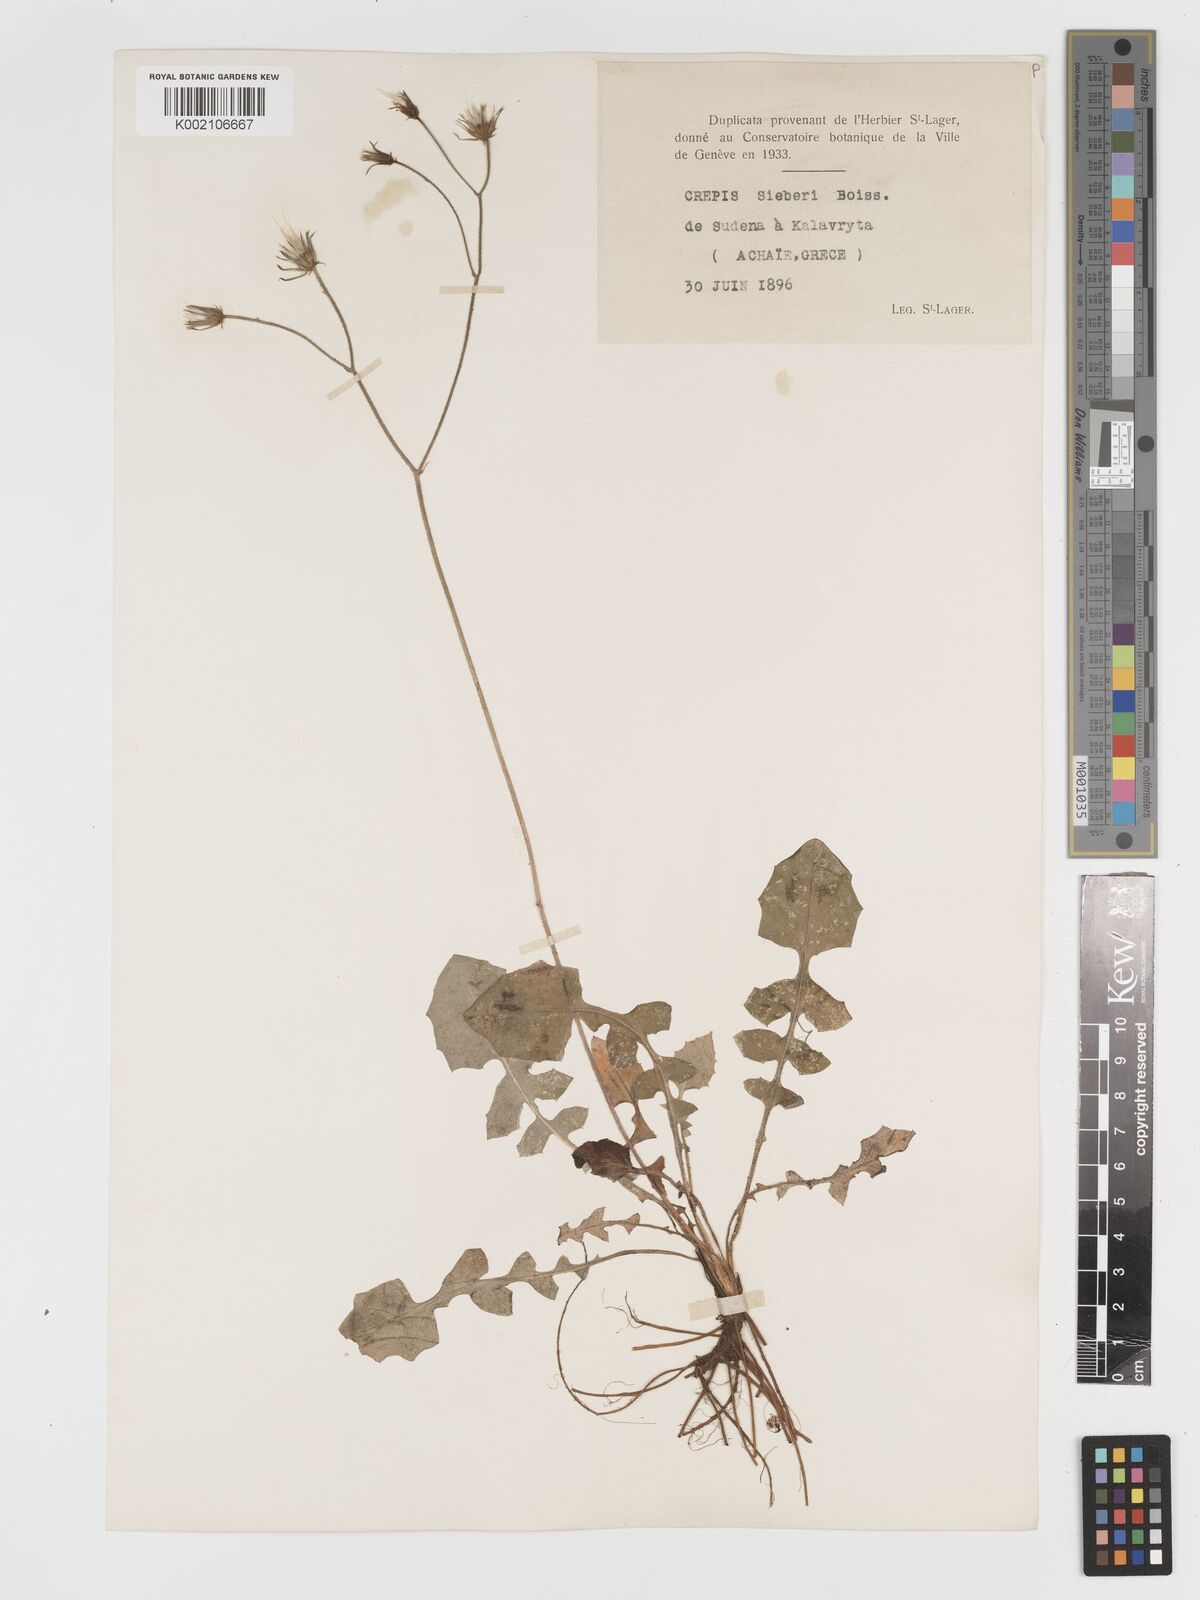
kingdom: Plantae
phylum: Tracheophyta
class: Magnoliopsida
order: Asterales
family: Asteraceae
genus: Crepis
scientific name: Crepis
